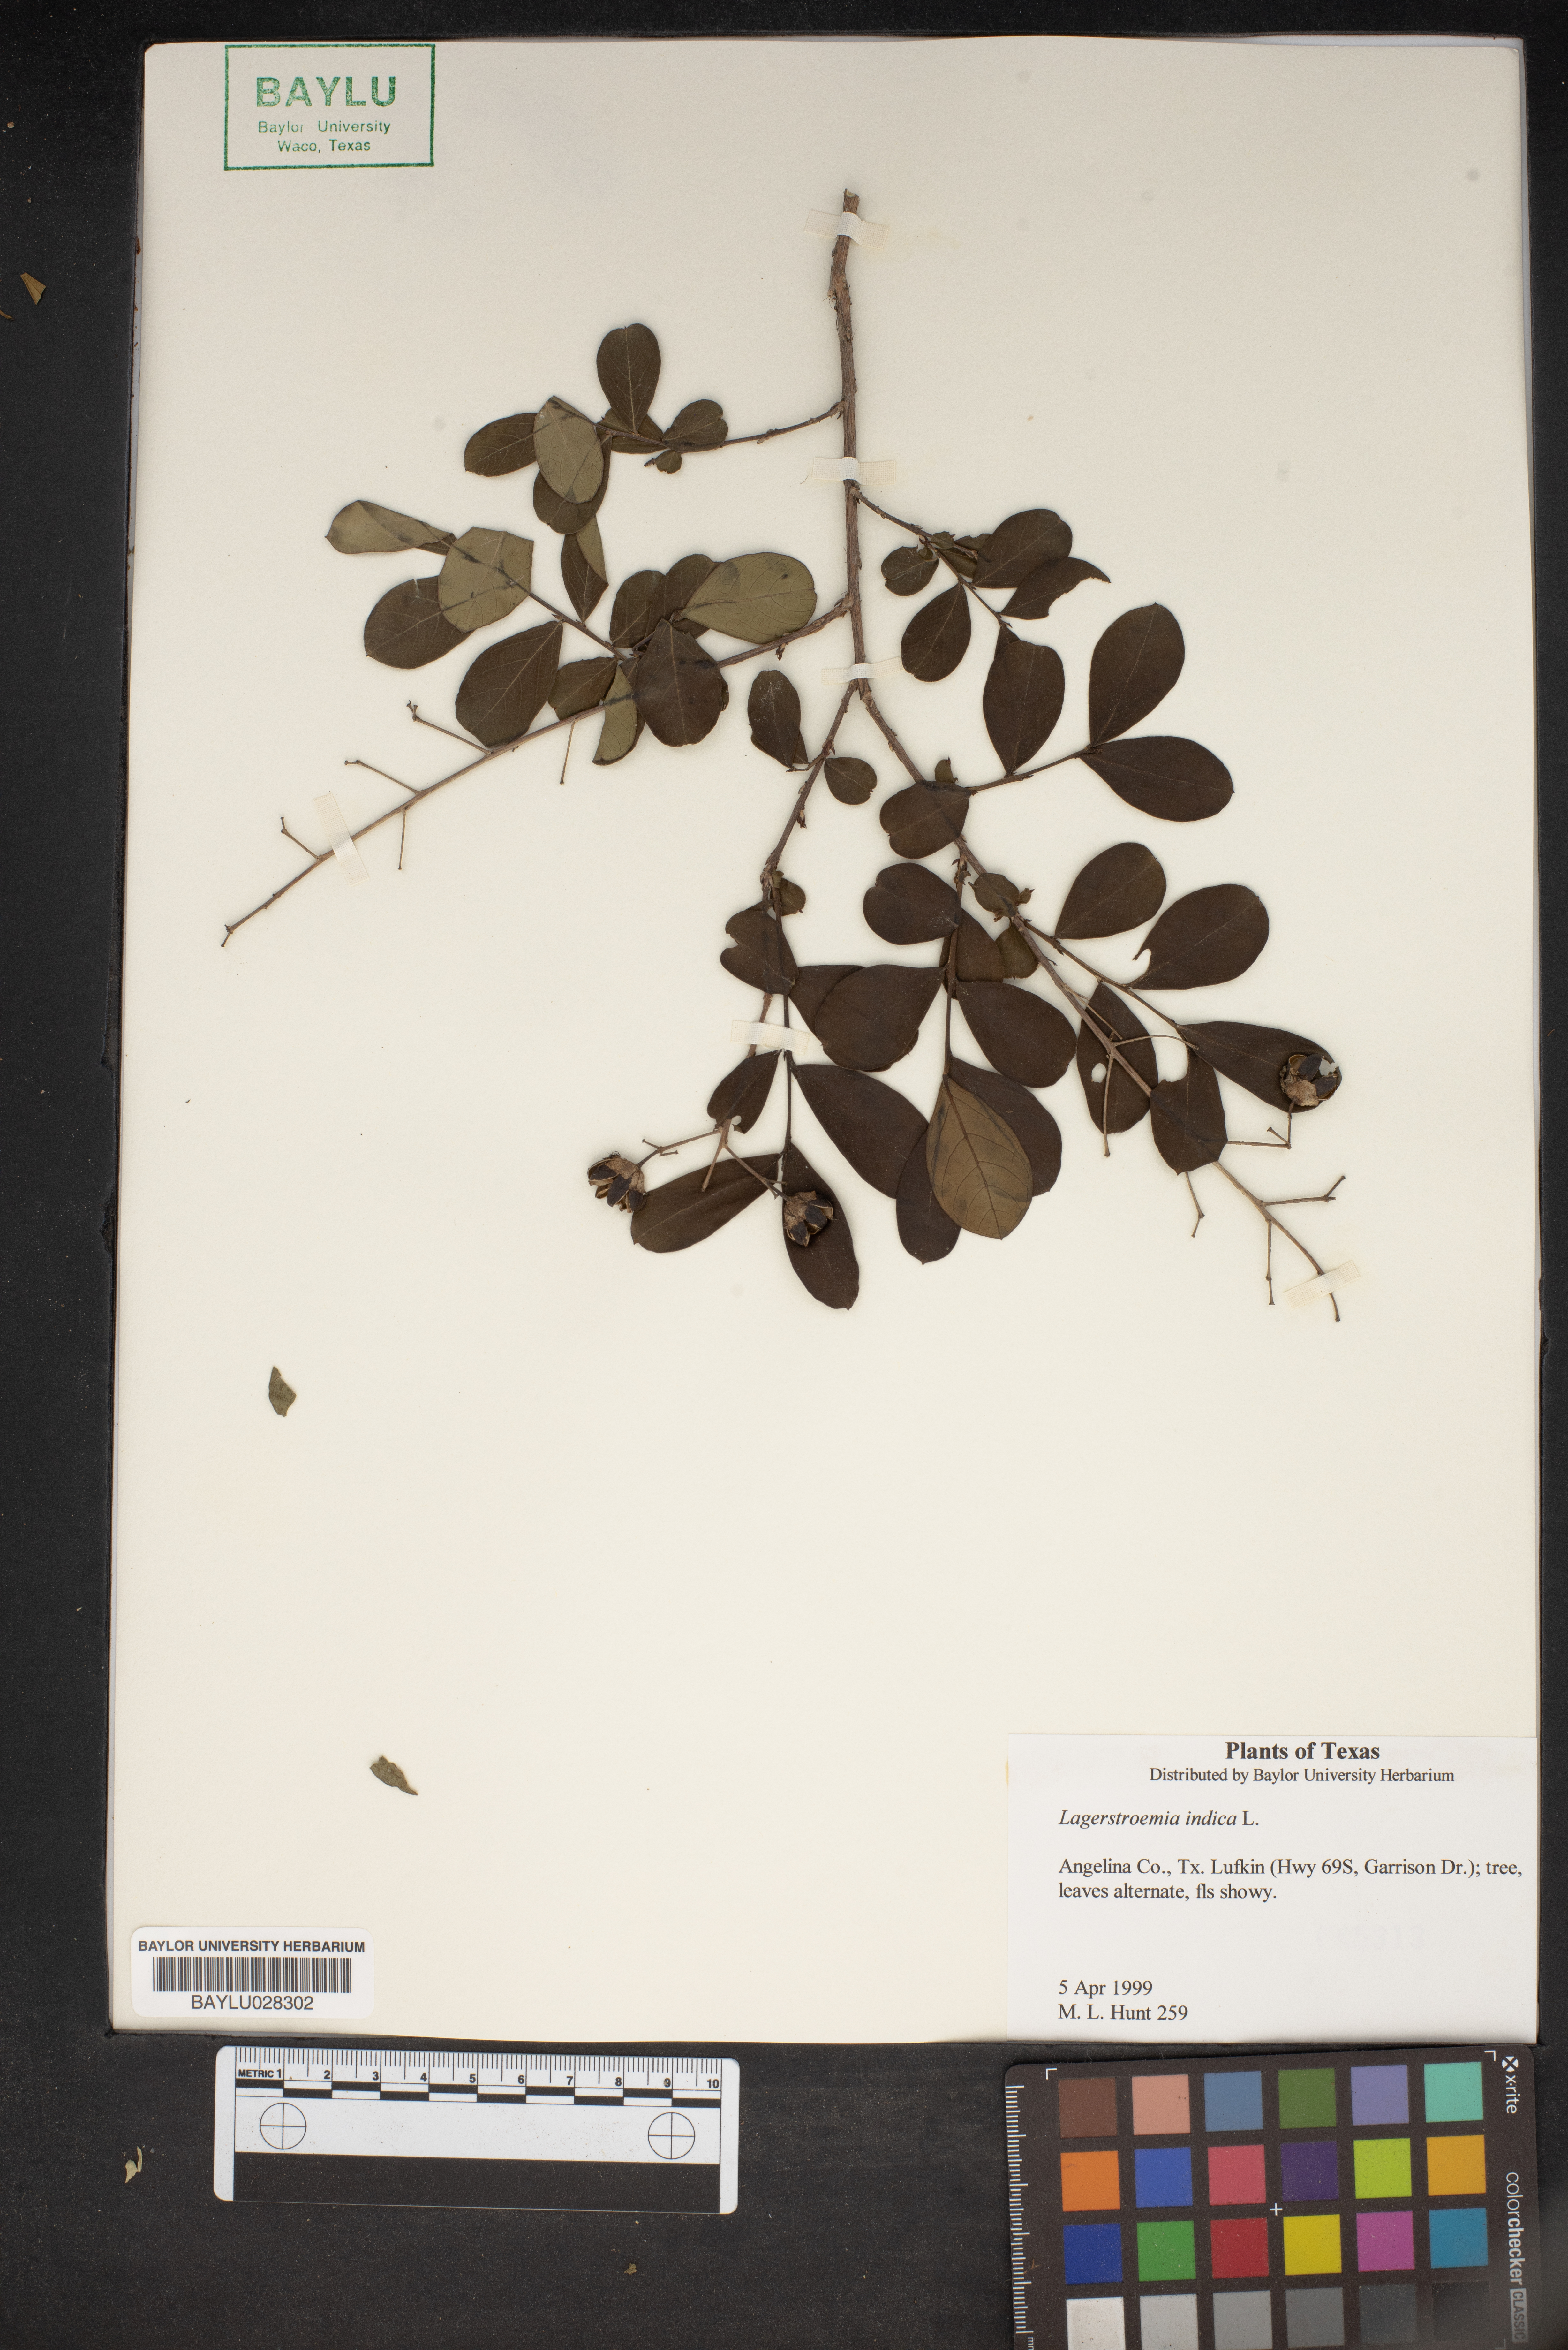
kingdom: Plantae
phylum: Tracheophyta
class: Magnoliopsida
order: Myrtales
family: Lythraceae
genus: Lagerstroemia
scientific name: Lagerstroemia indica
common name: Crape-myrtle
